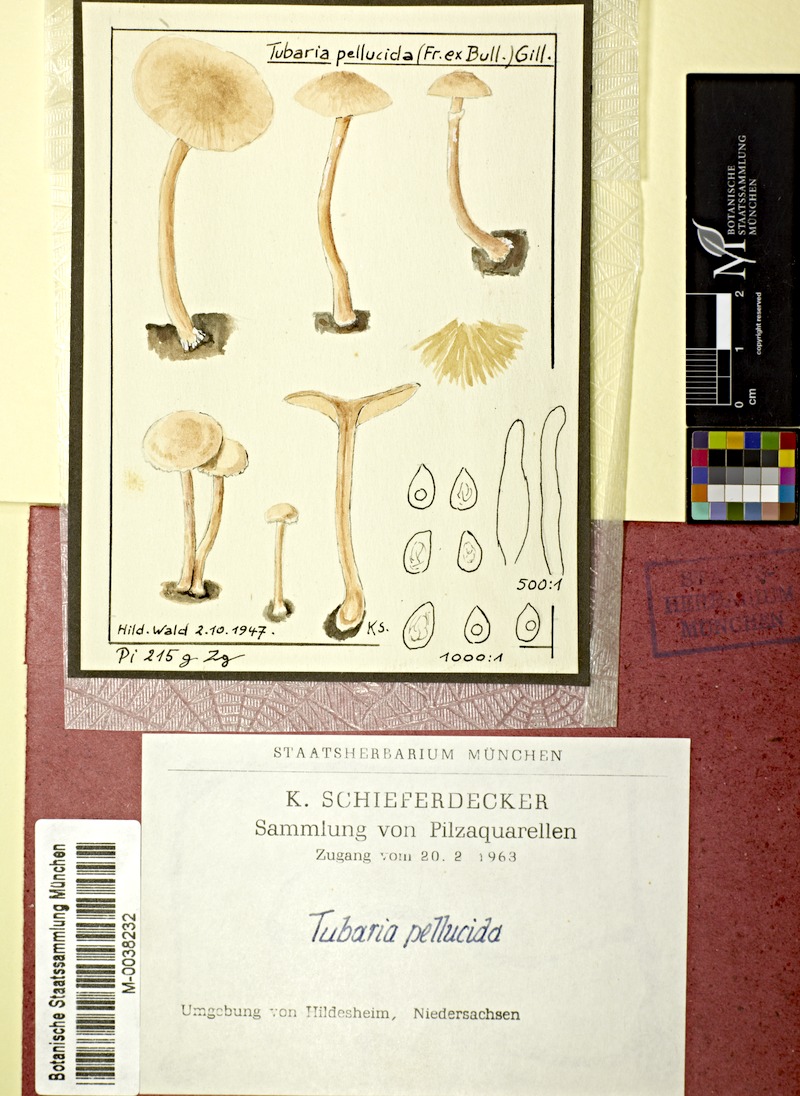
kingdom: Fungi
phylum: Basidiomycota
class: Agaricomycetes
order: Agaricales
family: Tubariaceae
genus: Tubaria
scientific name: Tubaria romagnesiana
